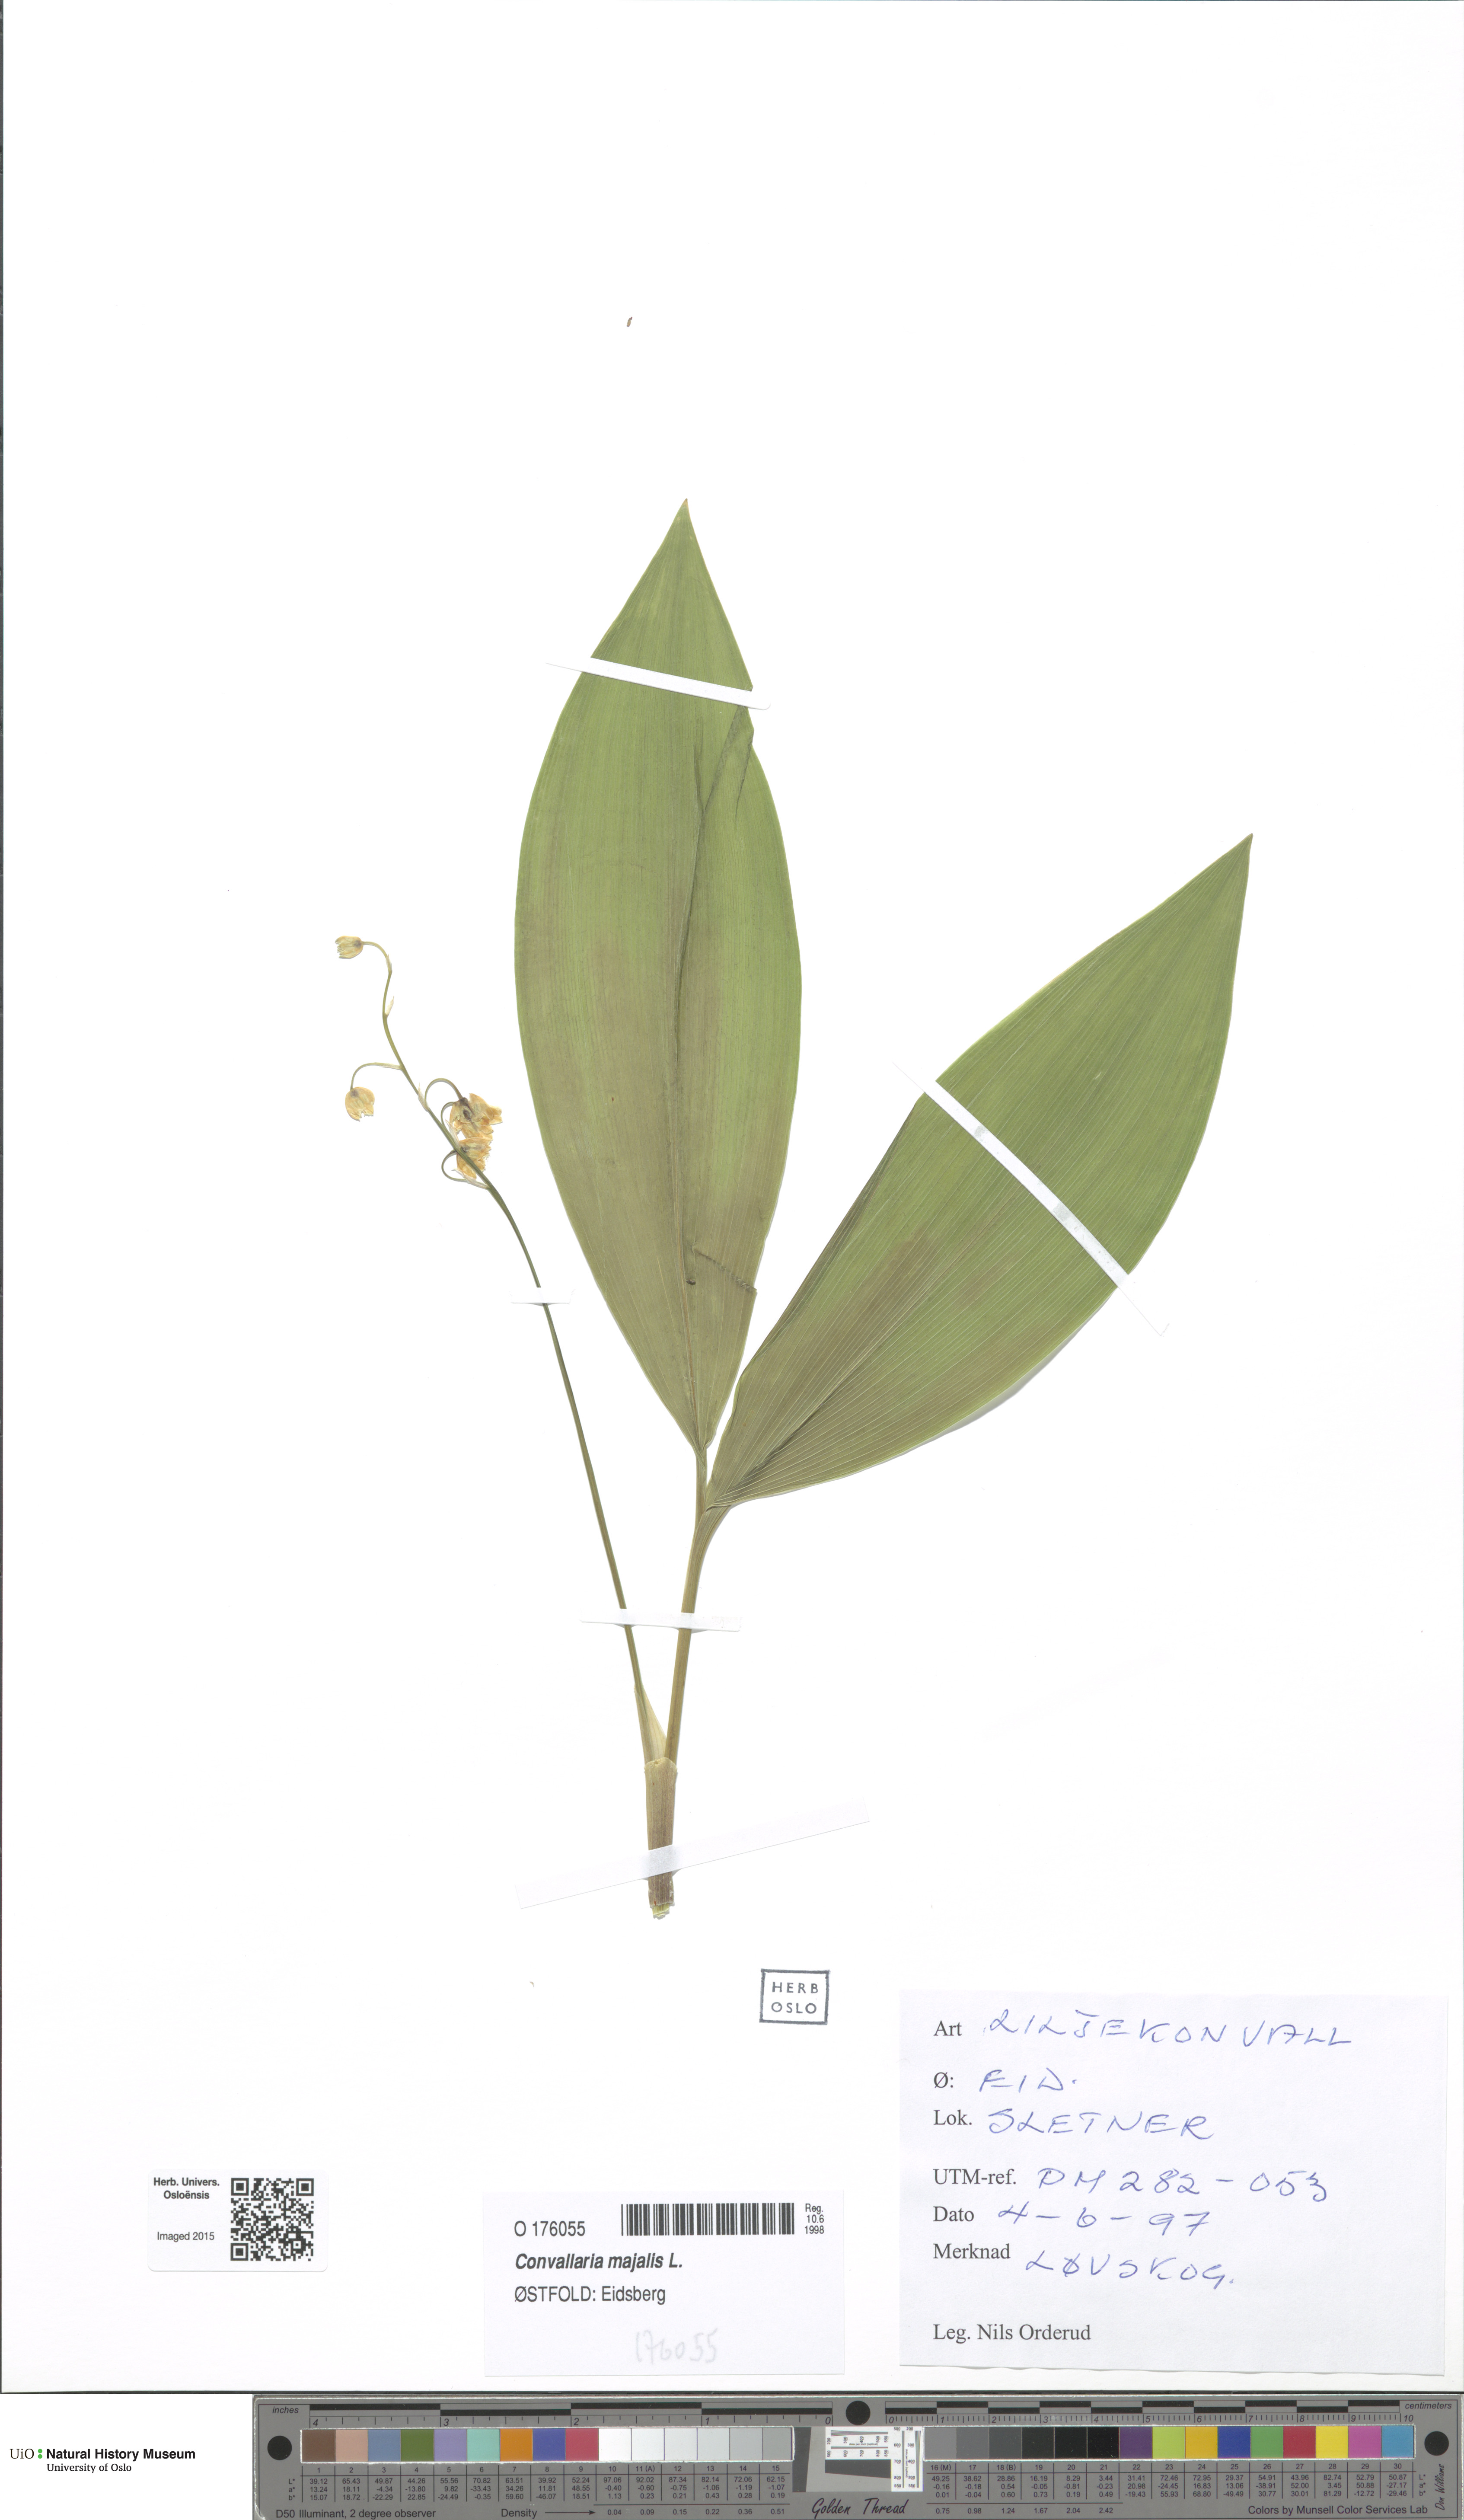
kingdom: Plantae
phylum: Tracheophyta
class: Liliopsida
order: Asparagales
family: Asparagaceae
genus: Convallaria
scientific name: Convallaria majalis
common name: Lily-of-the-valley
